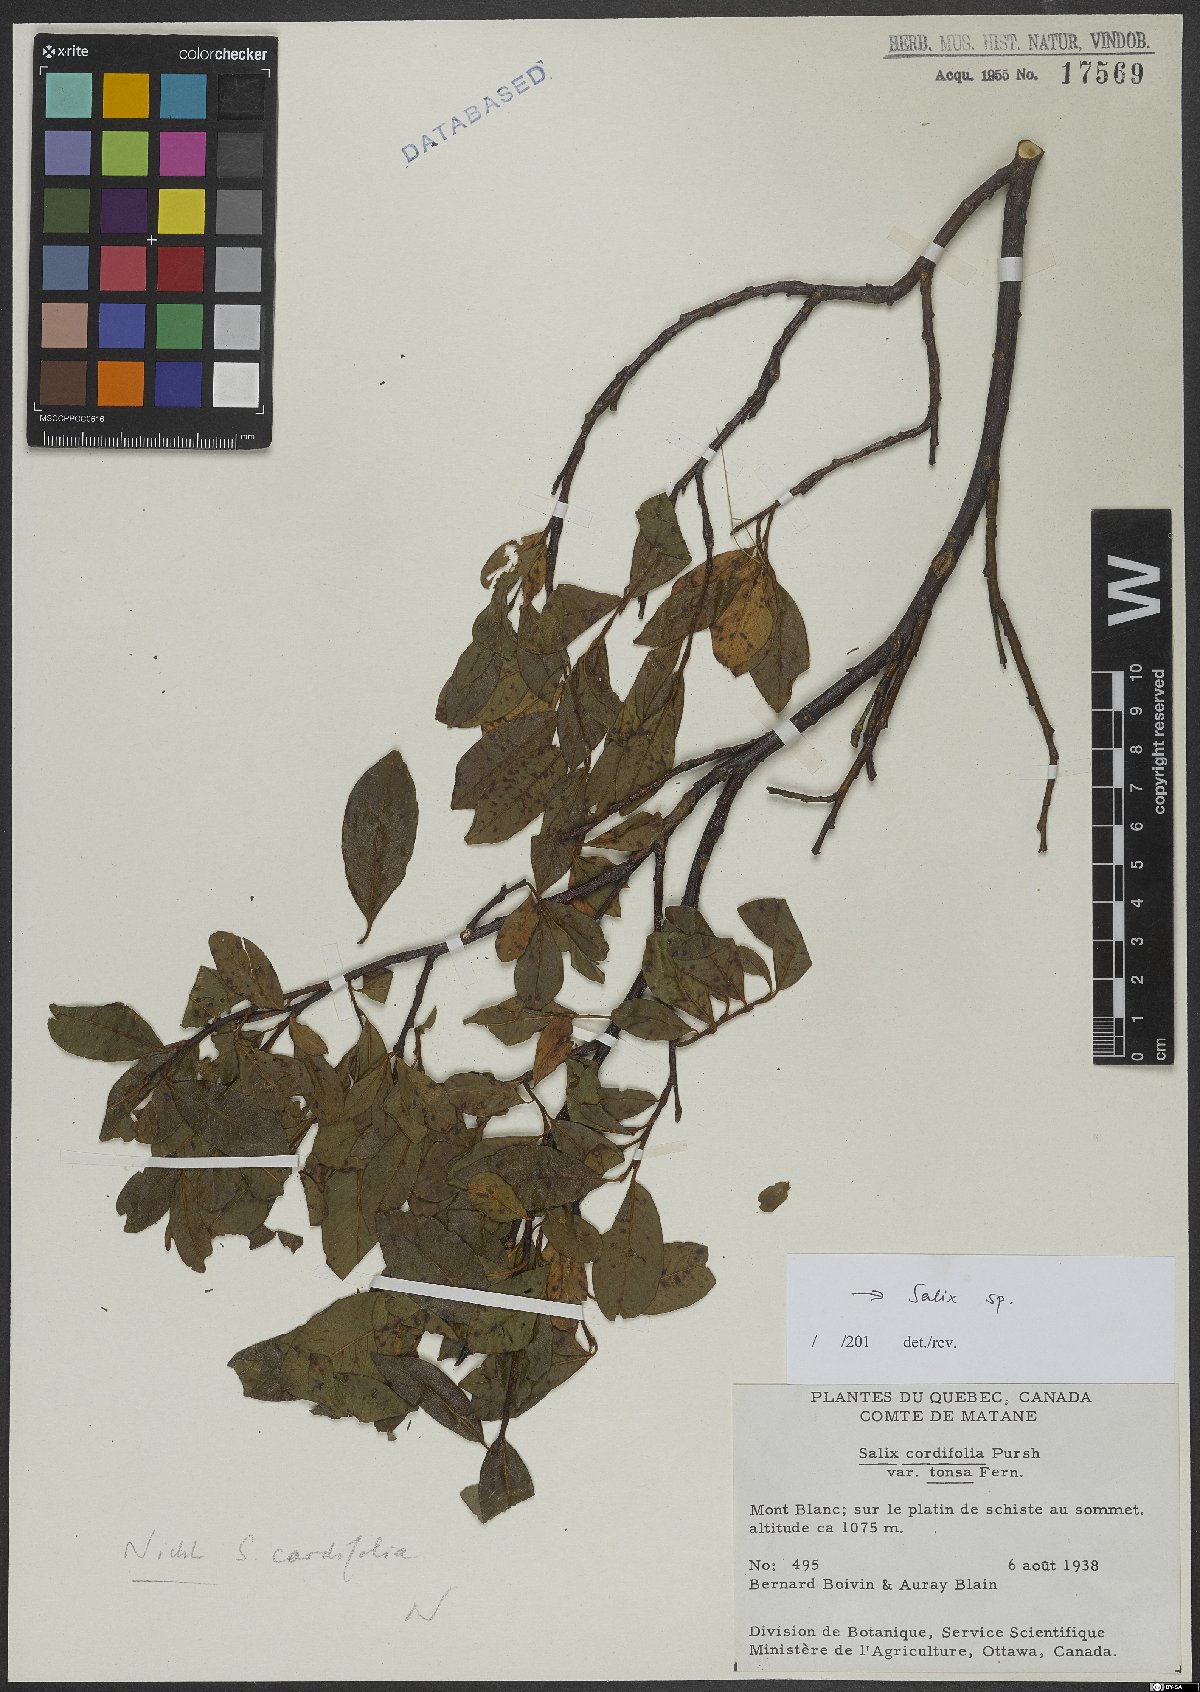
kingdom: Plantae
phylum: Tracheophyta
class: Magnoliopsida
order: Malpighiales
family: Salicaceae
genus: Salix
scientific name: Salix
